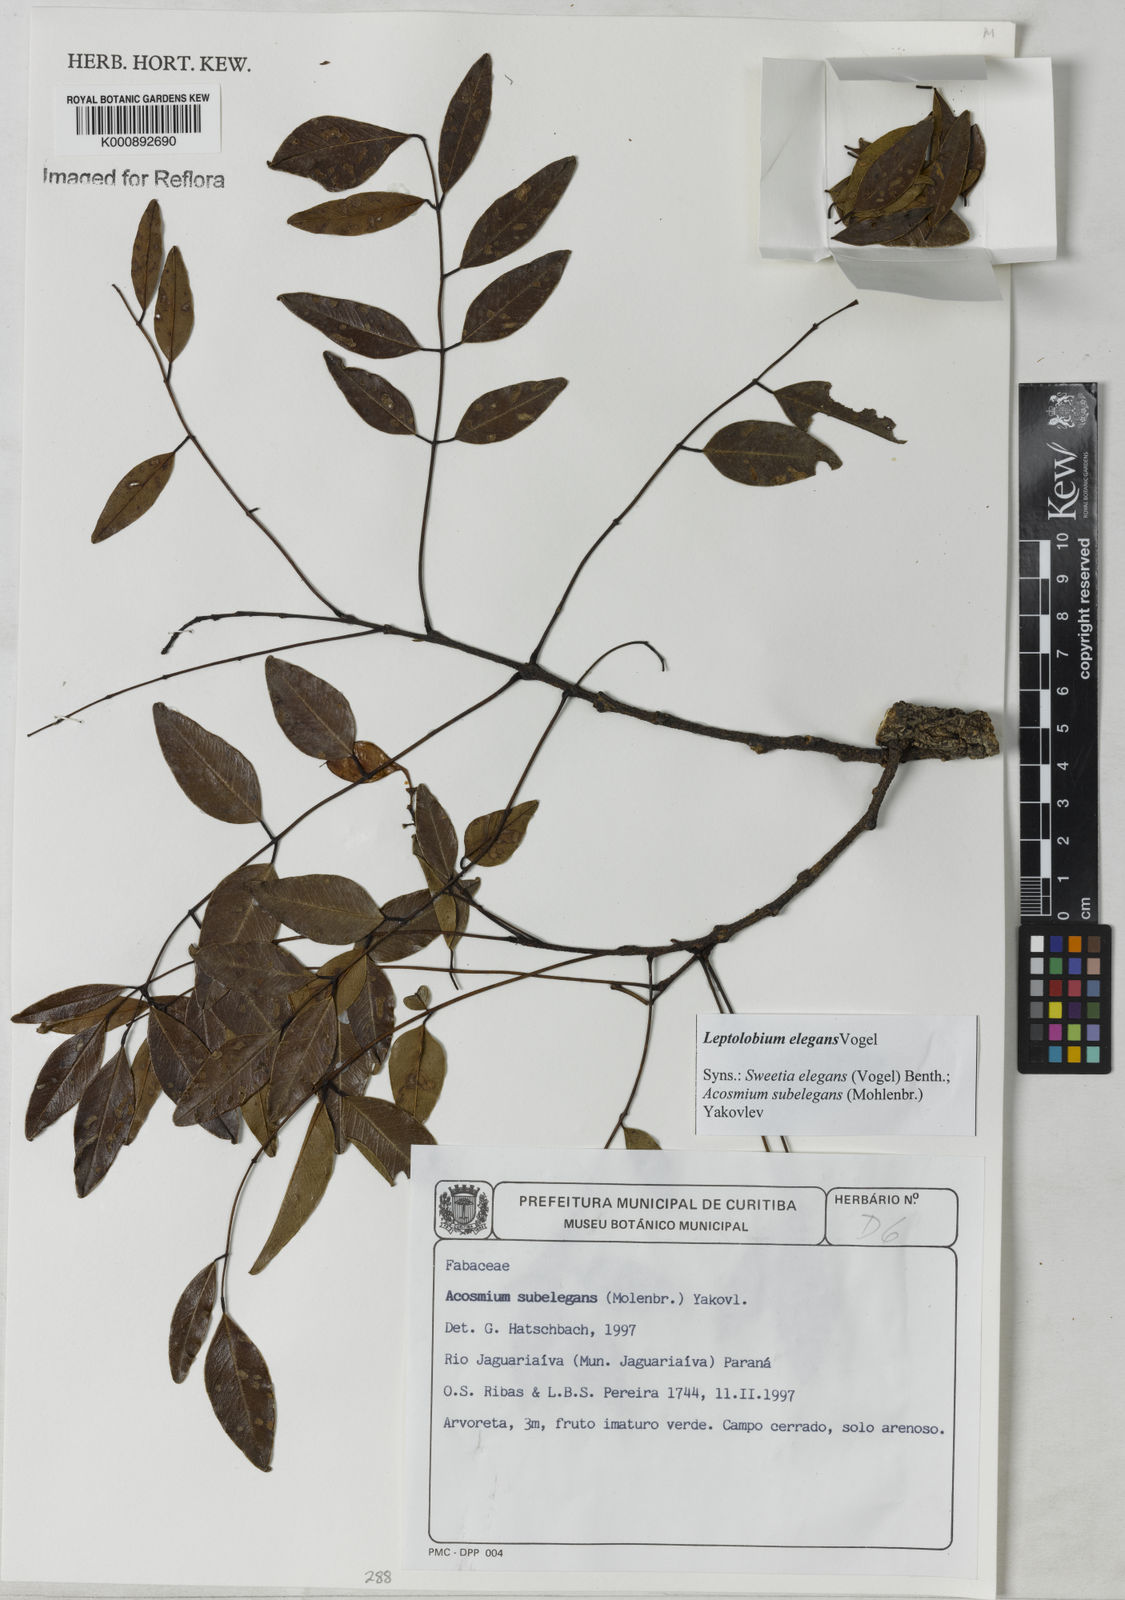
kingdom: Plantae
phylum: Tracheophyta
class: Magnoliopsida
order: Fabales
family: Fabaceae
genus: Leptolobium
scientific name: Leptolobium elegans
